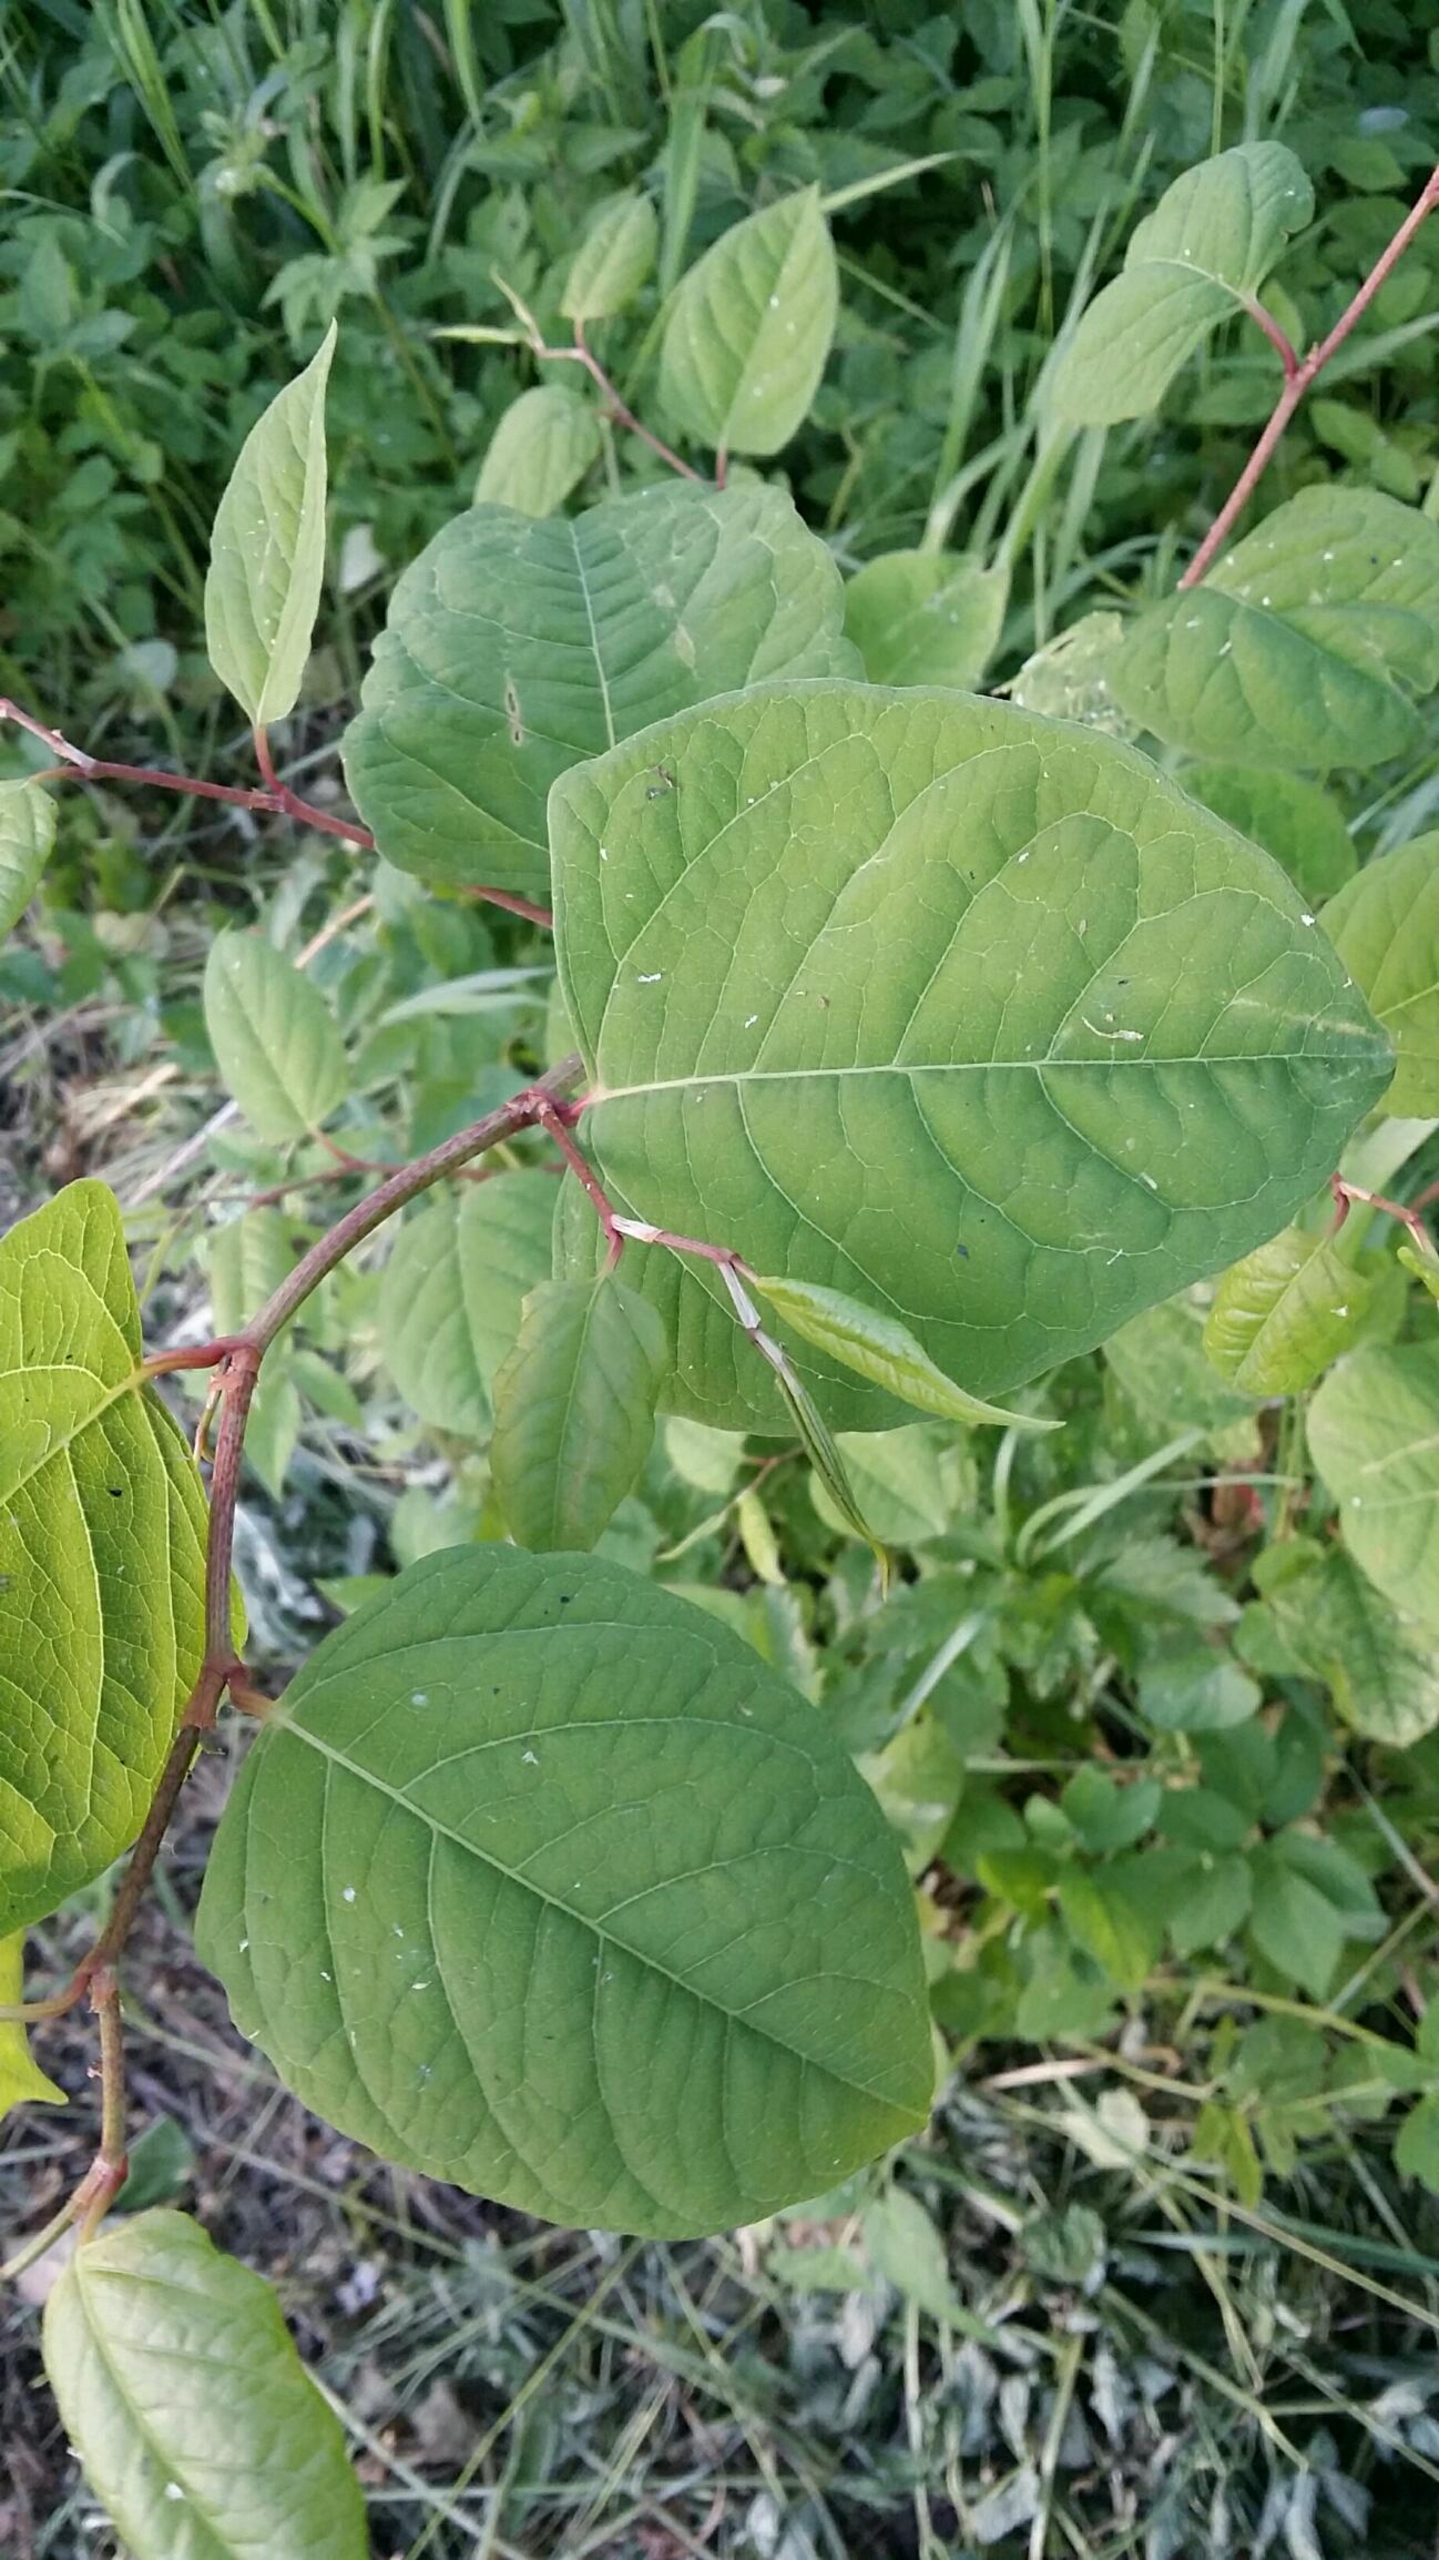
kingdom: Plantae
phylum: Tracheophyta
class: Magnoliopsida
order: Caryophyllales
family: Polygonaceae
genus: Reynoutria
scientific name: Reynoutria japonica
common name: Japan-pileurt
